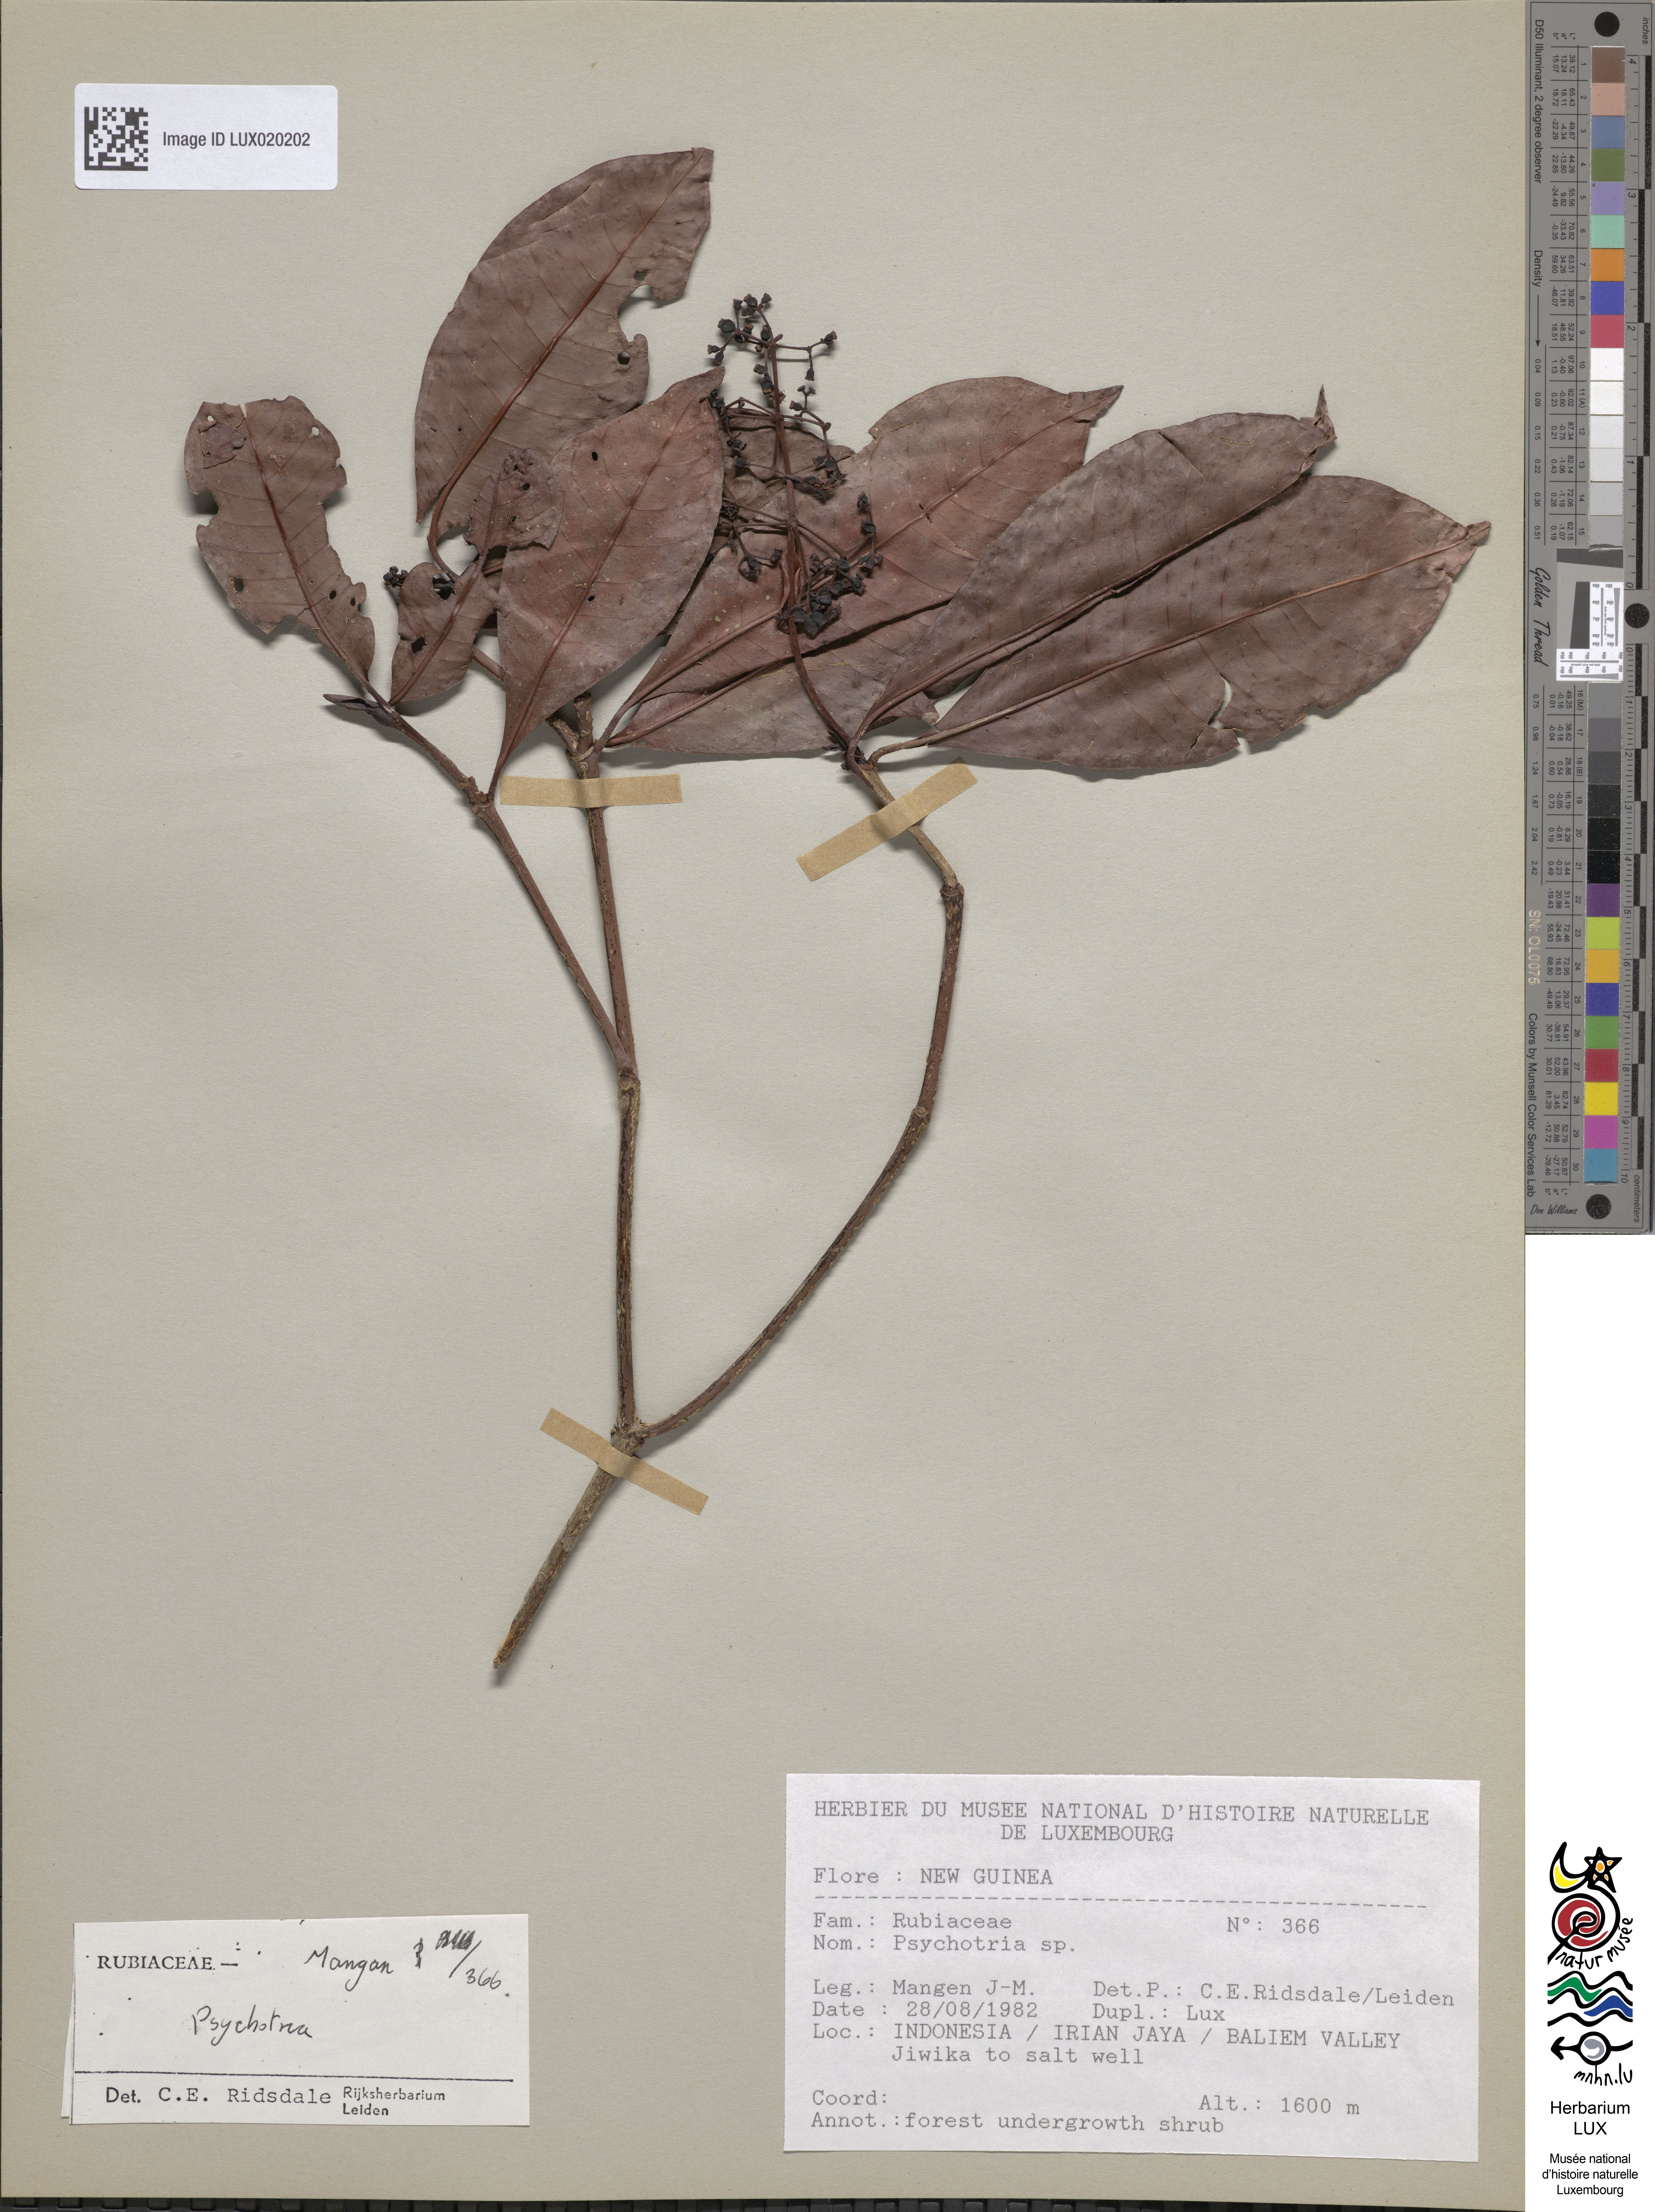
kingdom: Plantae
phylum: Tracheophyta
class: Magnoliopsida
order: Gentianales
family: Rubiaceae
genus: Psychotria
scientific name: Psychotria
